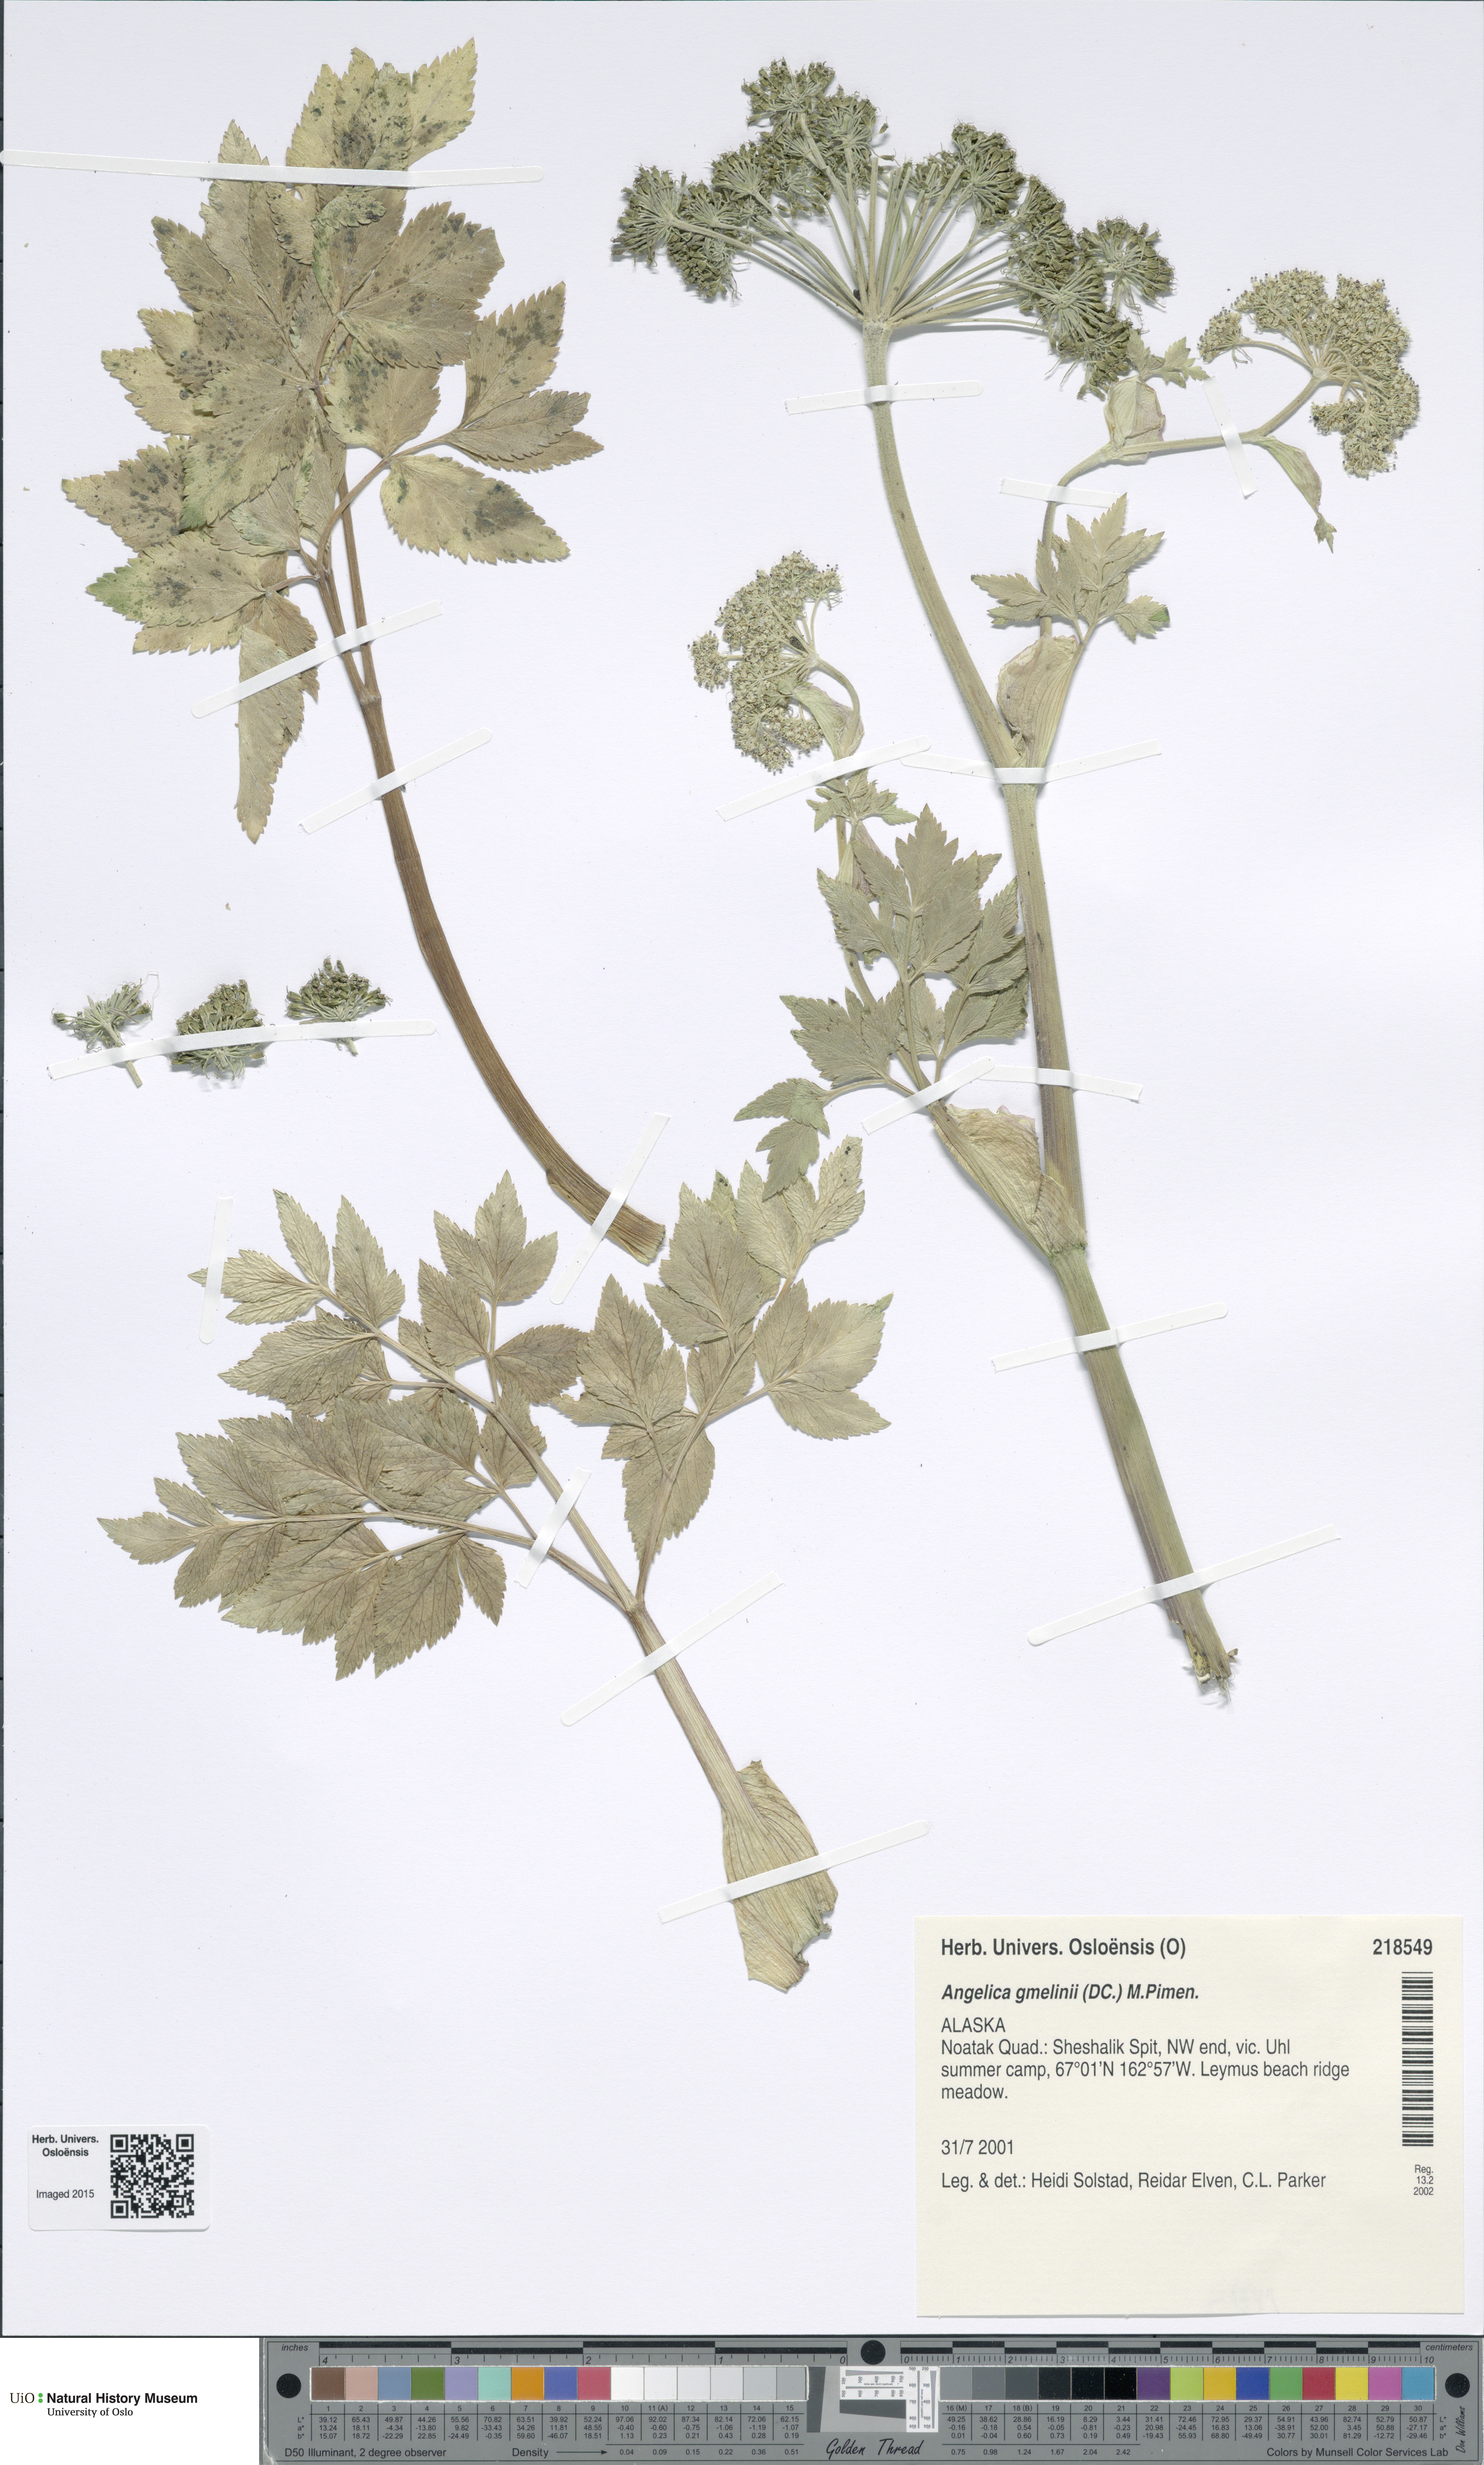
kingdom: Plantae
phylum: Tracheophyta
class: Magnoliopsida
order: Apiales
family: Apiaceae
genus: Angelica
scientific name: Angelica gmelinii
